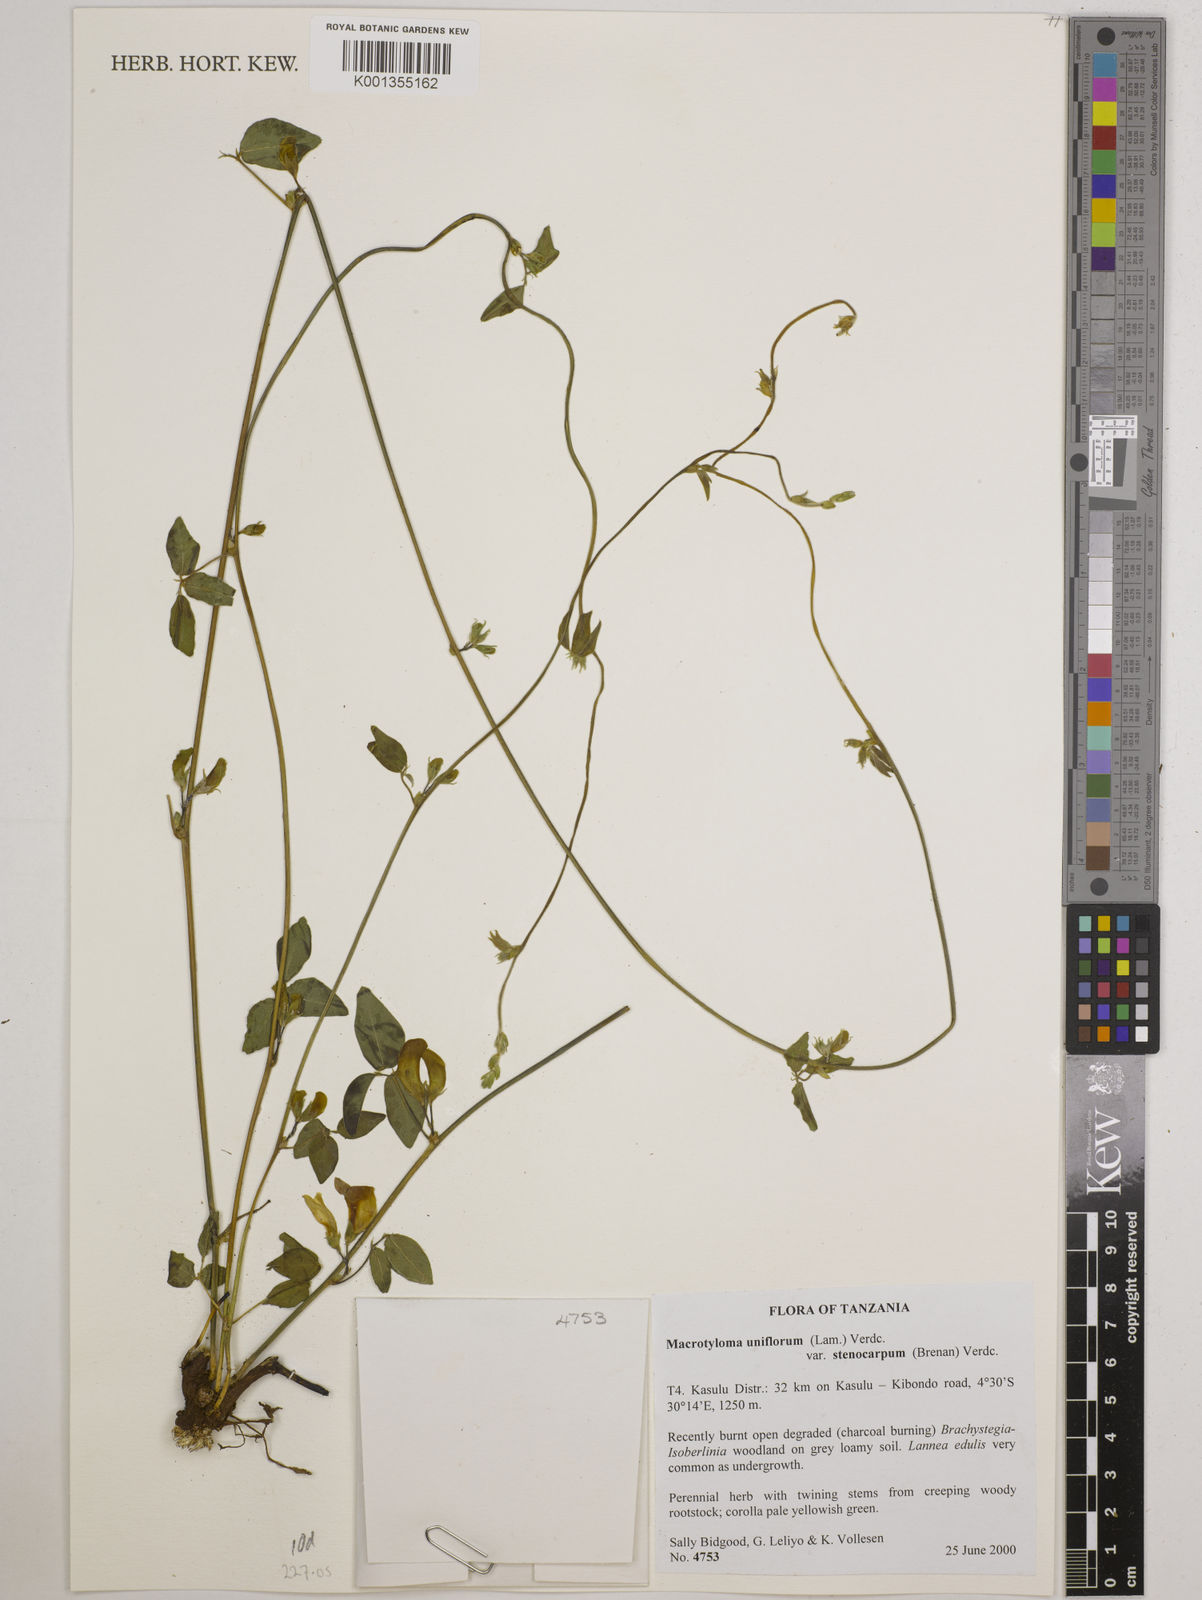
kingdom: Plantae
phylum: Tracheophyta
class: Magnoliopsida
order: Fabales
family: Fabaceae
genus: Macrotyloma
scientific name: Macrotyloma
